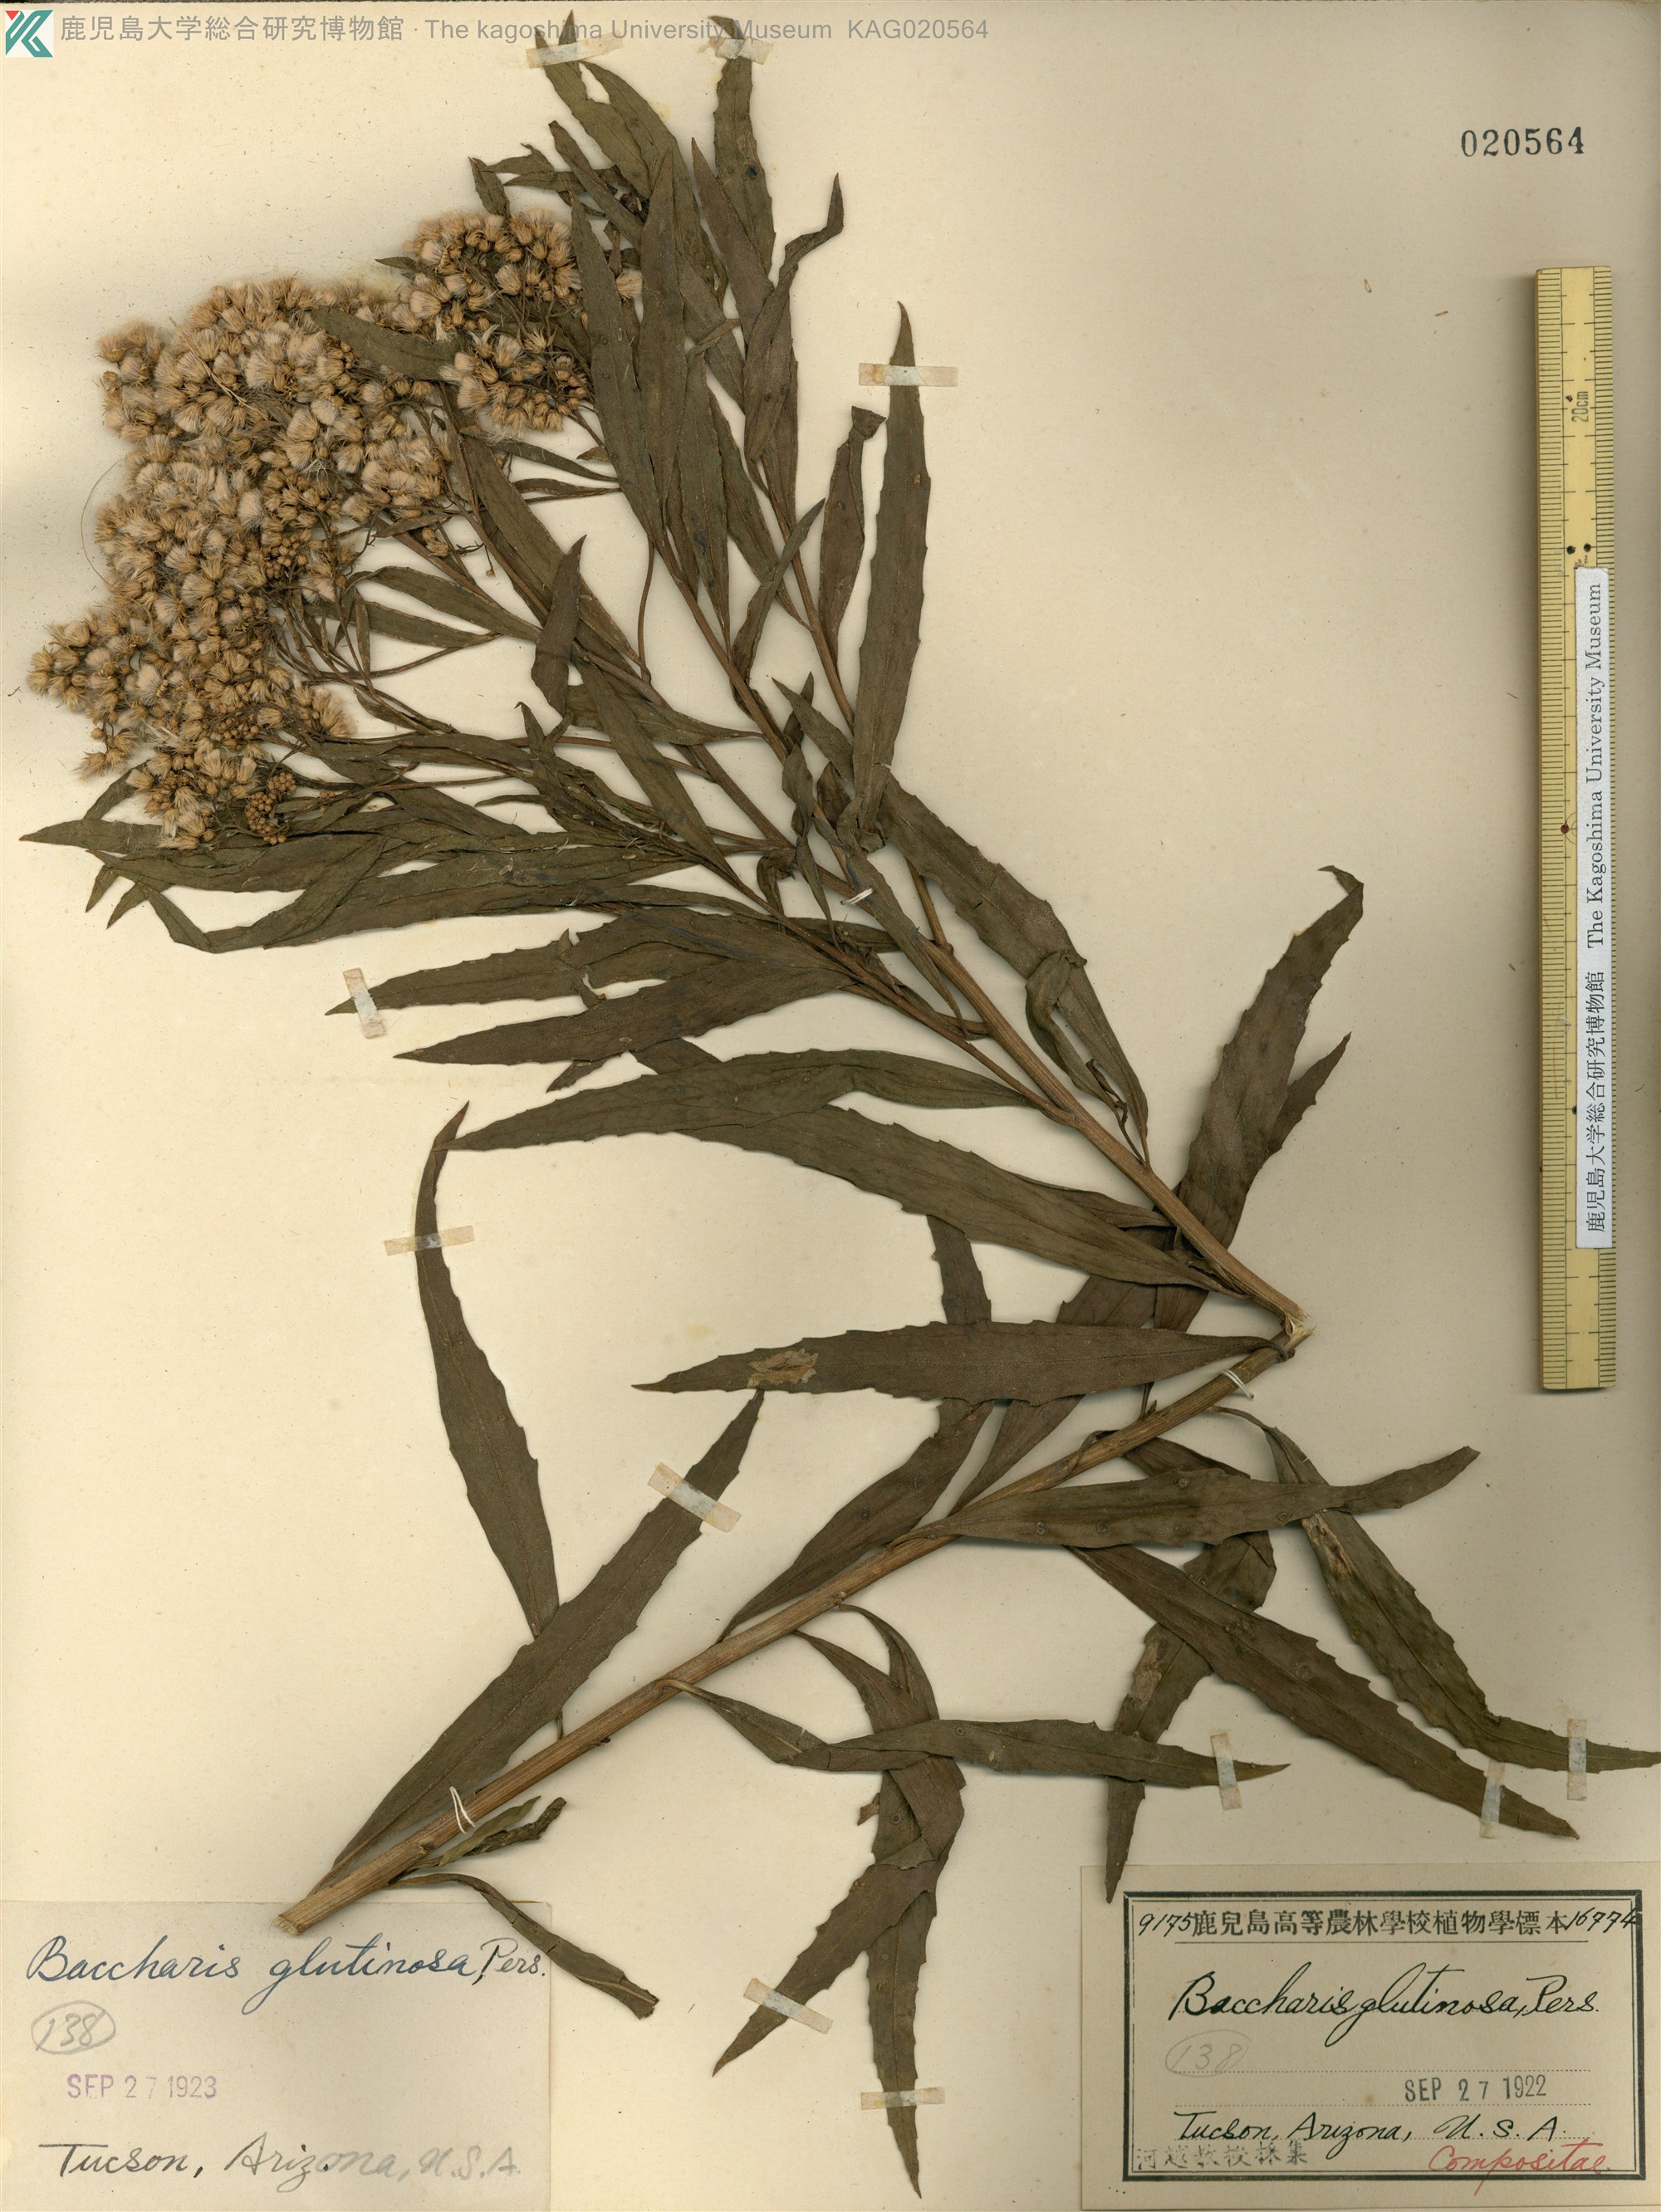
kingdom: Plantae
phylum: Tracheophyta
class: Magnoliopsida
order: Asterales
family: Asteraceae
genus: Baccharis
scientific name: Baccharis glutinosa
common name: Saltmarsh baccharis
